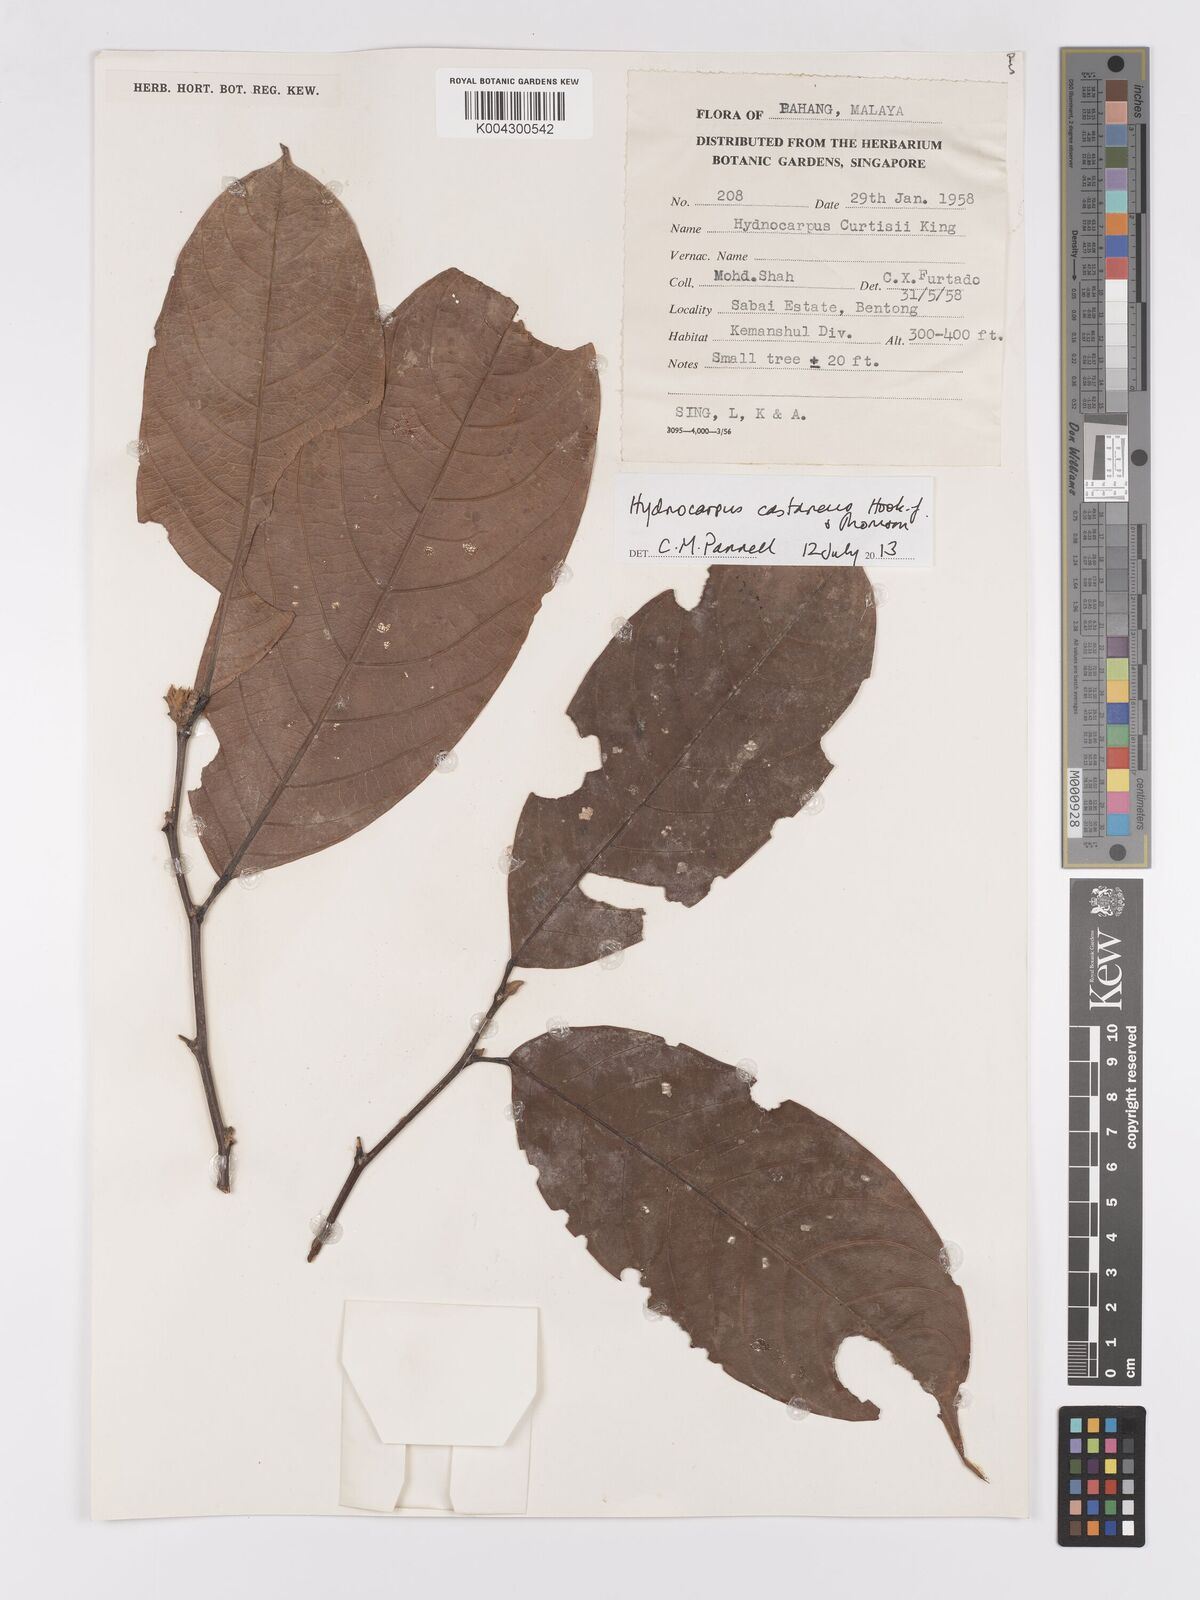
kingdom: Plantae
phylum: Tracheophyta
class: Magnoliopsida
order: Malpighiales
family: Achariaceae
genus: Hydnocarpus
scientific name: Hydnocarpus curtisii
